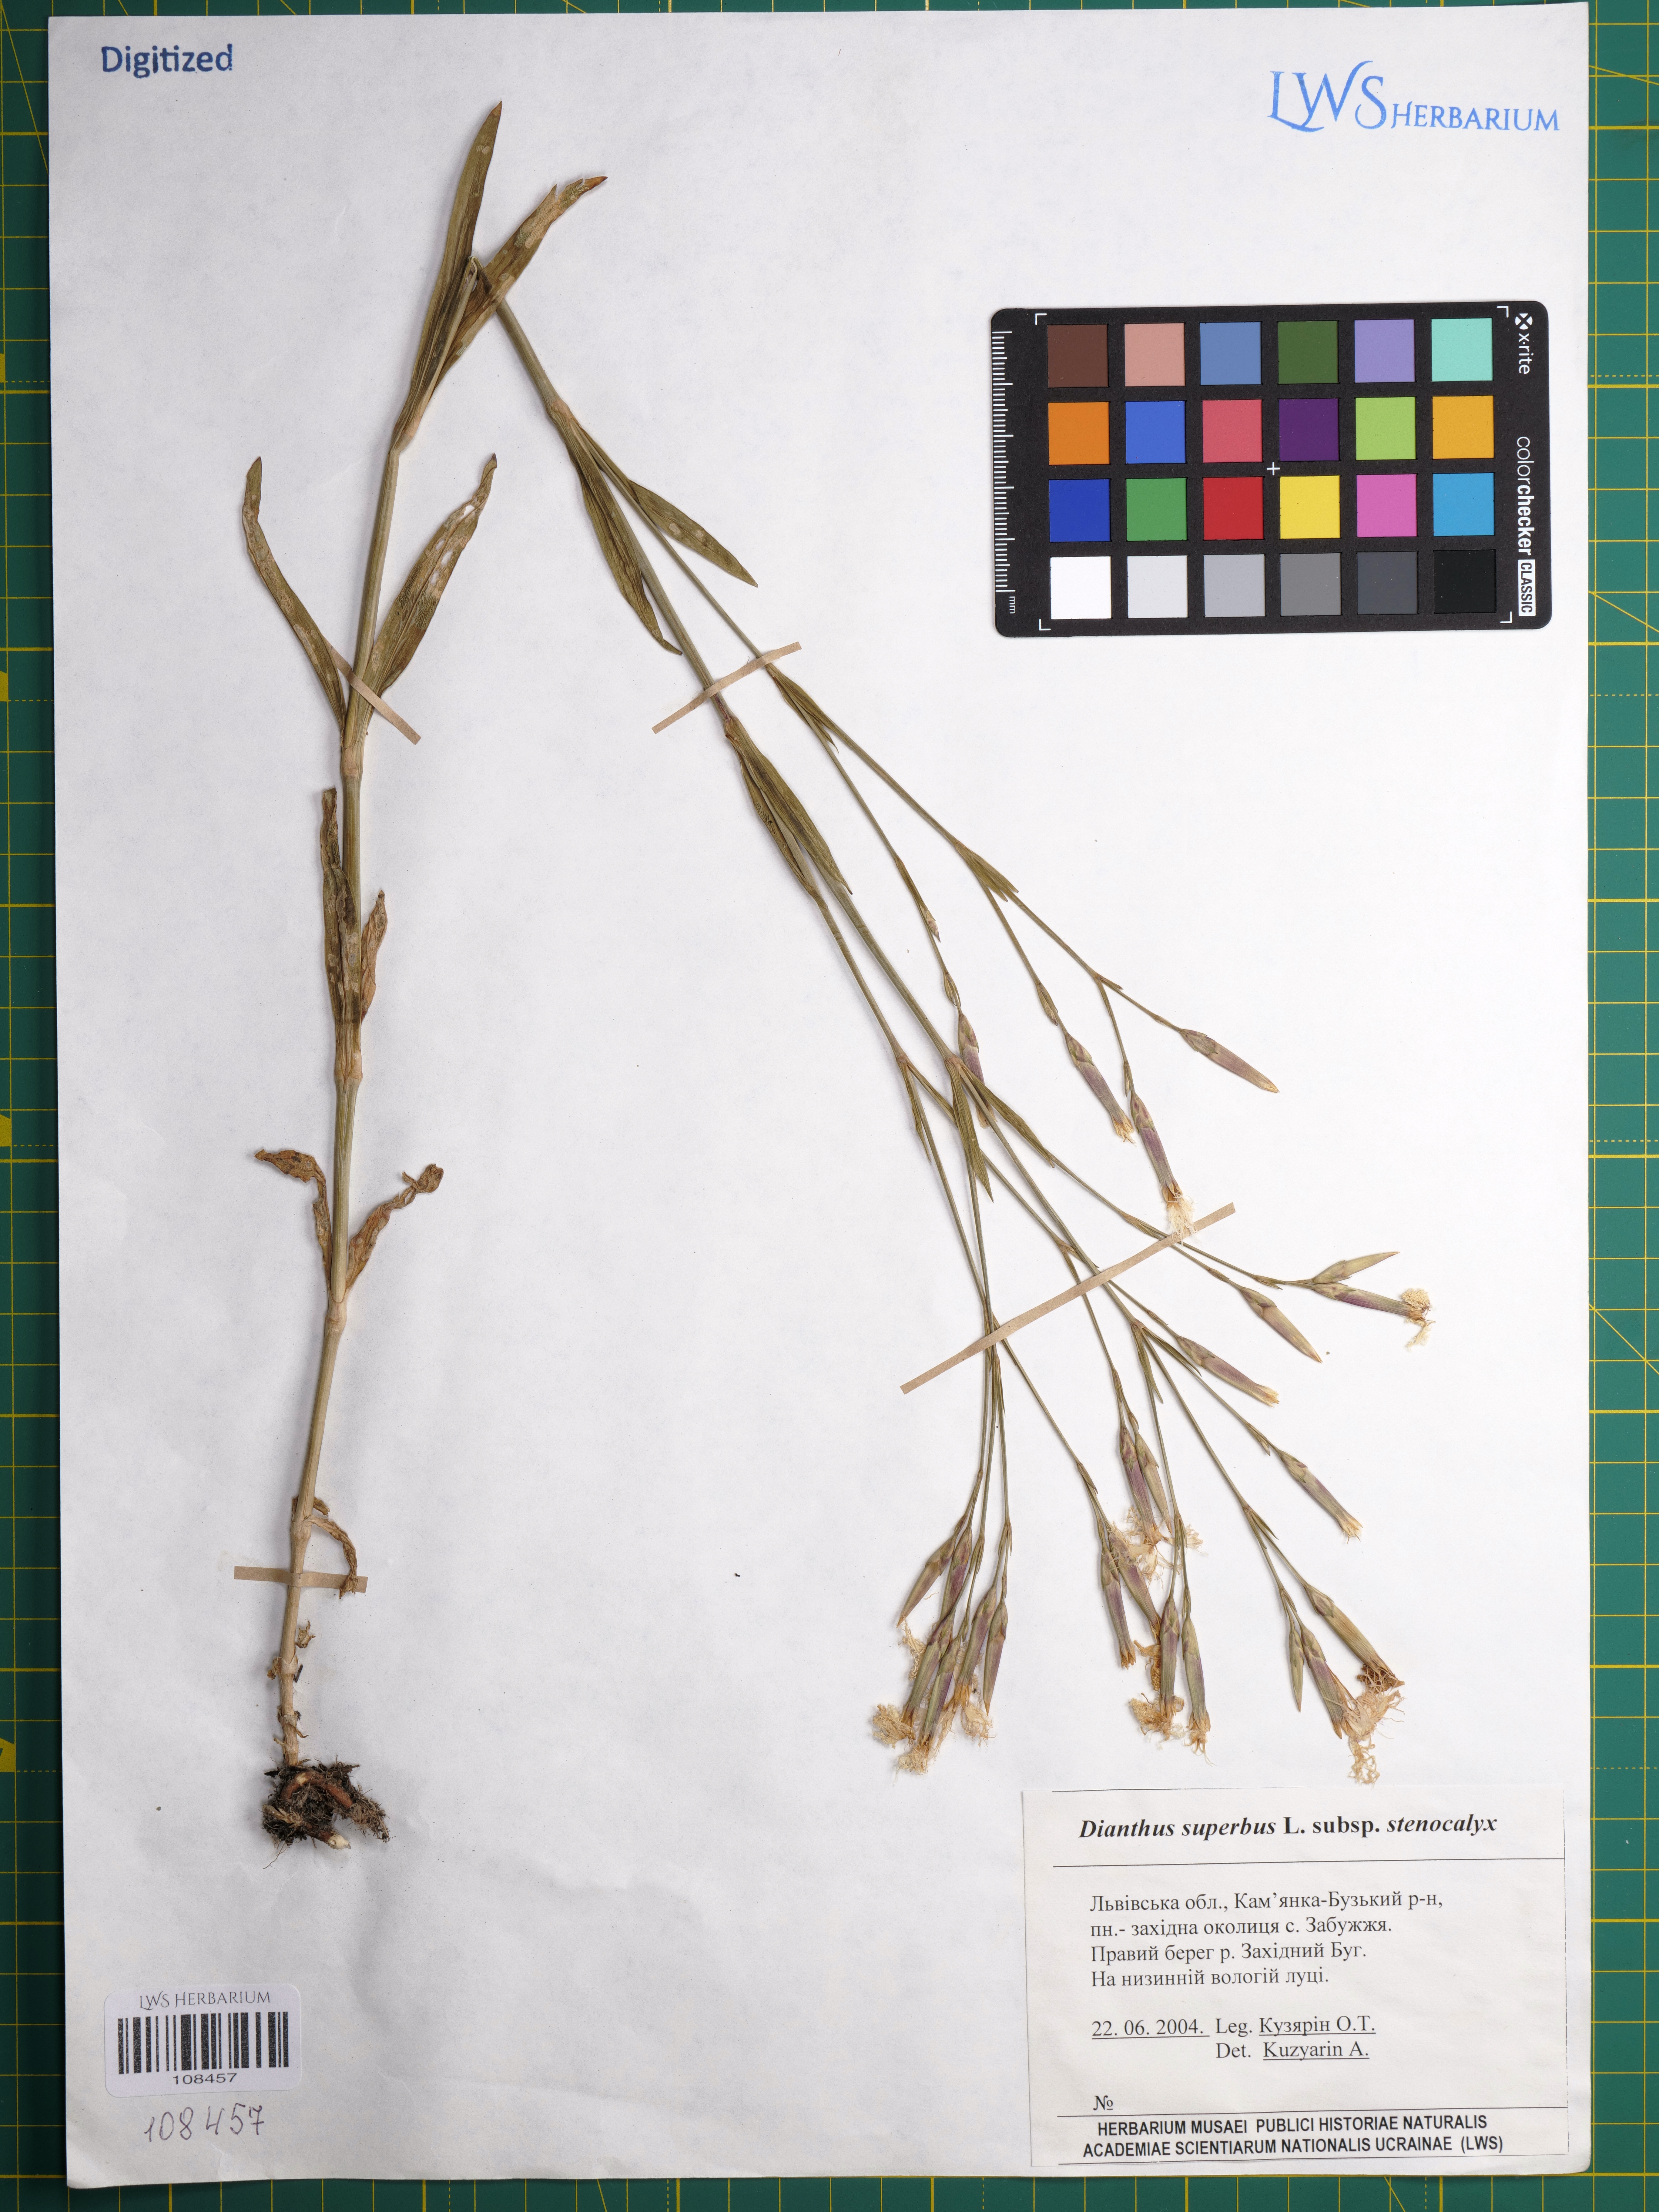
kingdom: Plantae
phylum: Tracheophyta
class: Magnoliopsida
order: Caryophyllales
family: Caryophyllaceae
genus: Dianthus
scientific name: Dianthus superbus
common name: Fringed pink
